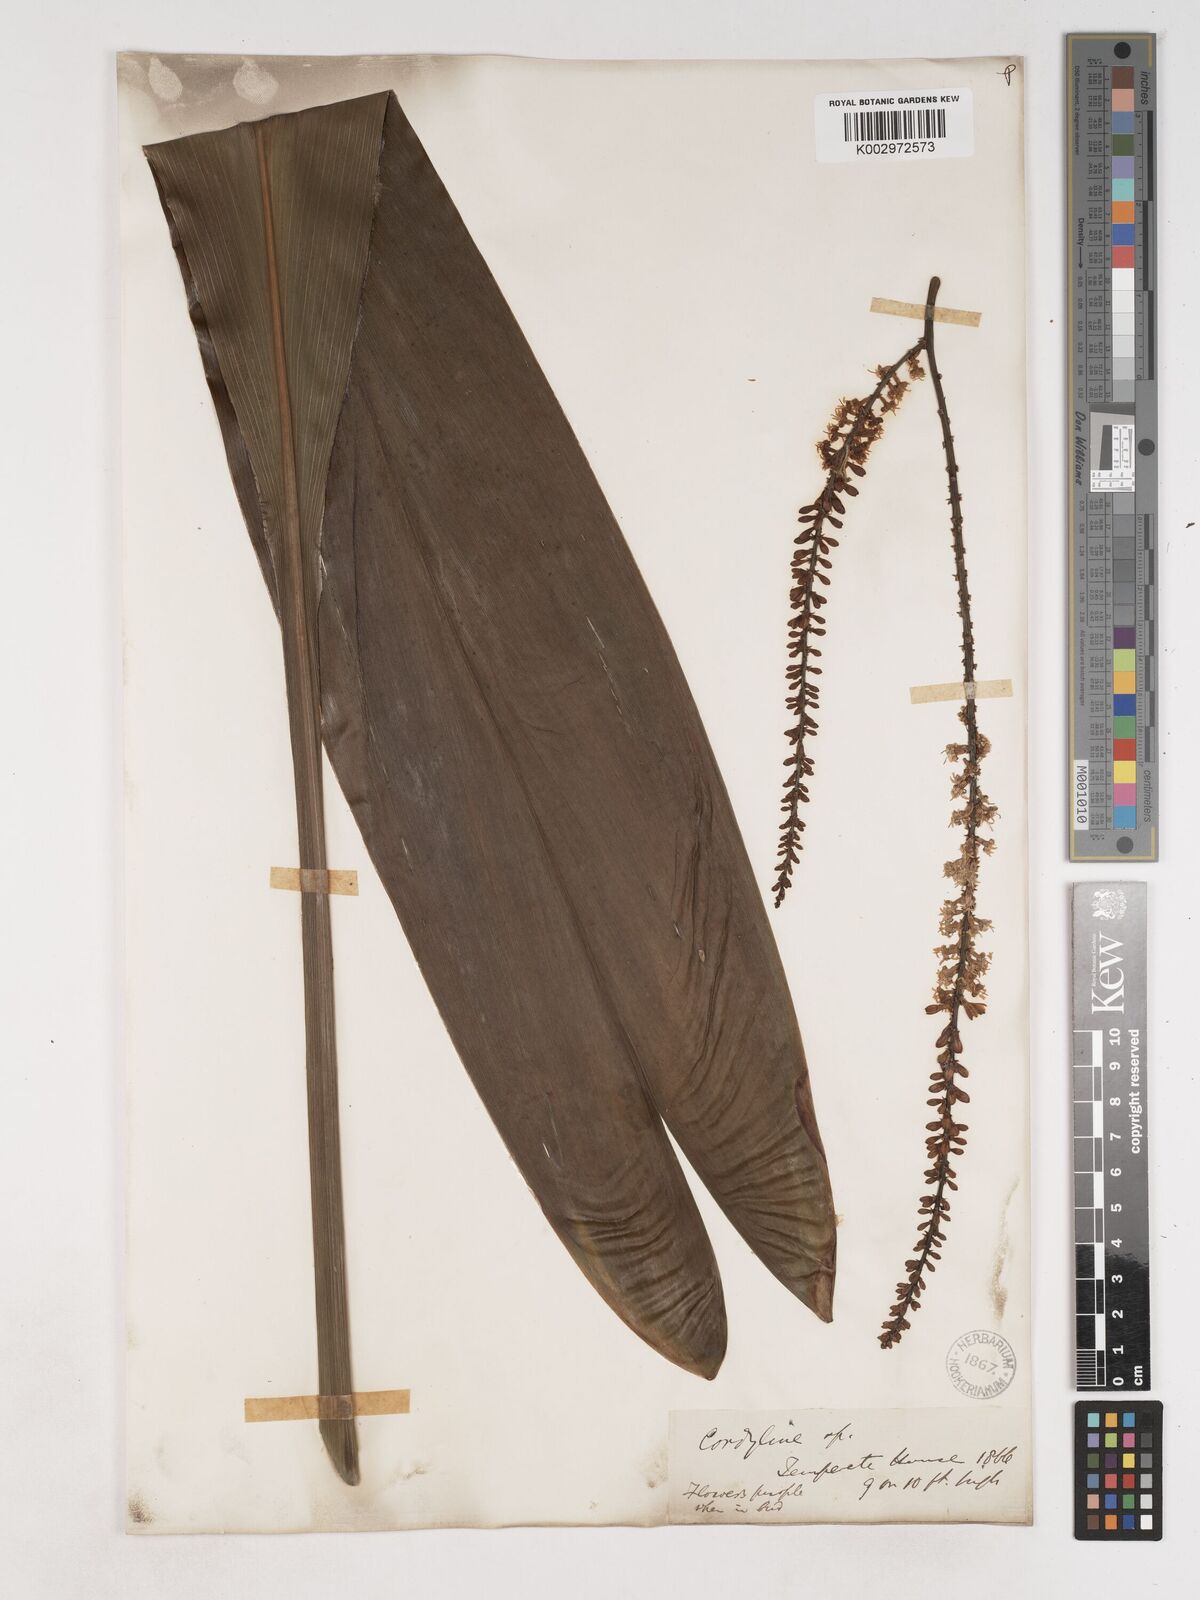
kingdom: Plantae
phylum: Tracheophyta
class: Liliopsida
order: Asparagales
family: Asparagaceae
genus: Cordyline
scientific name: Cordyline fruticosa
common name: Good-luck-plant
